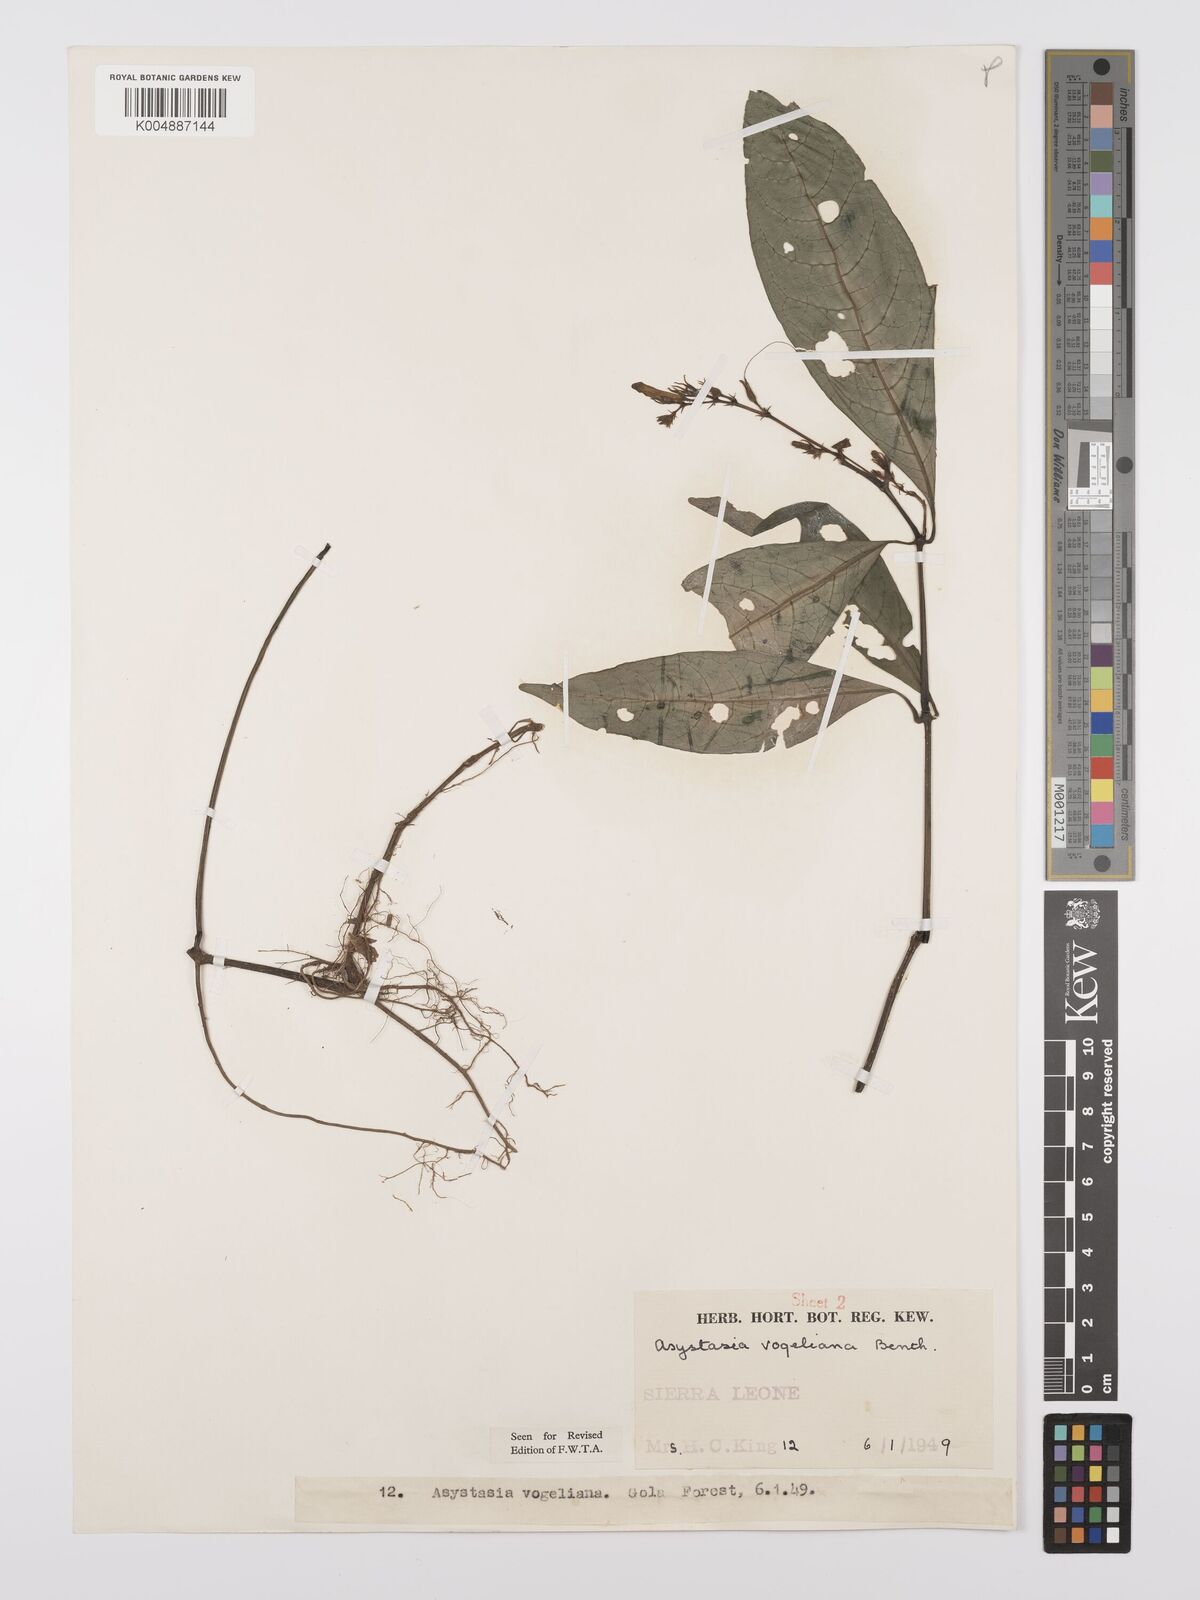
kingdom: Plantae
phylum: Tracheophyta
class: Magnoliopsida
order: Lamiales
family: Acanthaceae
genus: Asystasia
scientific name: Asystasia vogeliana
